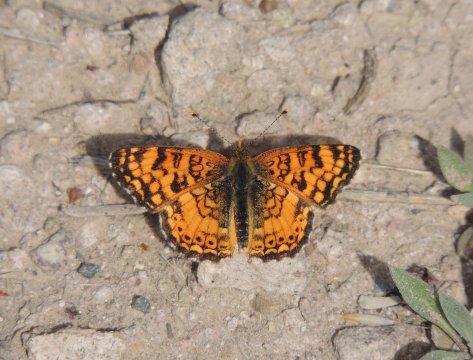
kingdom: Animalia
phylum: Arthropoda
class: Insecta
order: Lepidoptera
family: Nymphalidae
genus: Eresia
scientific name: Eresia aveyrona
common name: Mylitta Crescent
